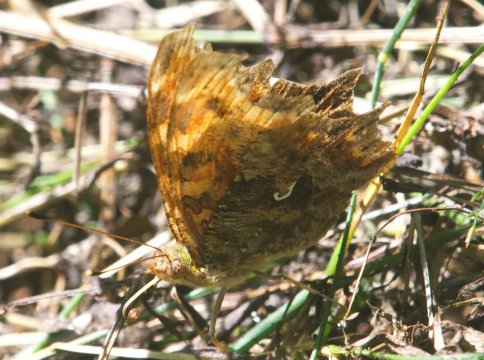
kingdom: Animalia
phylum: Arthropoda
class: Insecta
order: Lepidoptera
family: Nymphalidae
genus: Polygonia
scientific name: Polygonia comma
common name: Eastern Comma
